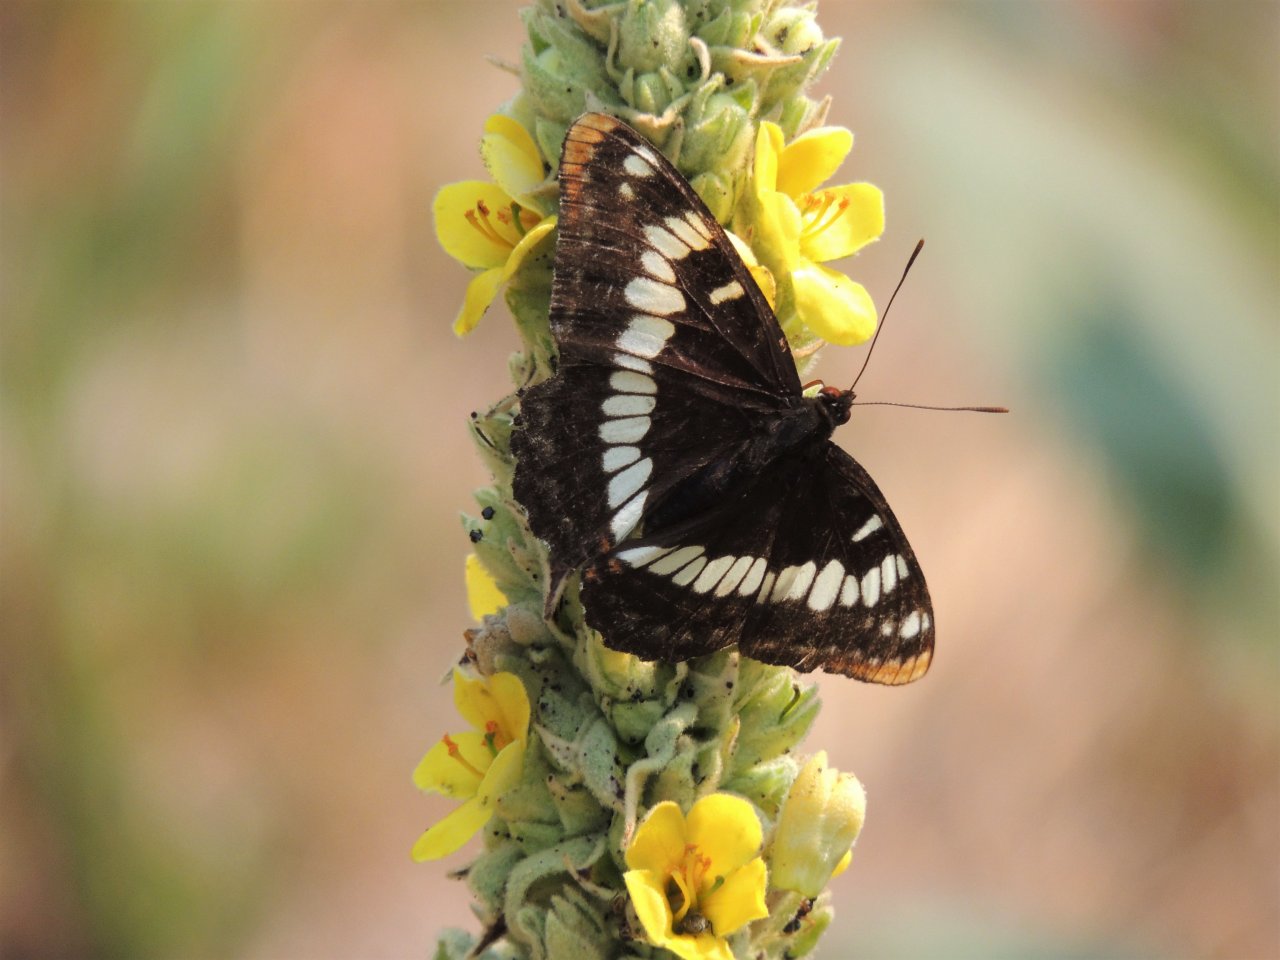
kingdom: Animalia
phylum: Arthropoda
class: Insecta
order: Lepidoptera
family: Nymphalidae
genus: Limenitis
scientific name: Limenitis lorquini
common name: Lorquin's Admiral
